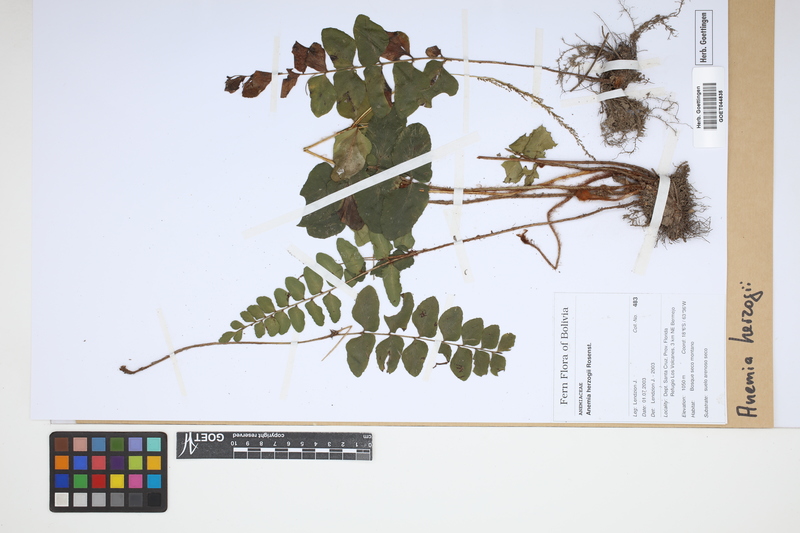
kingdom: Plantae
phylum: Tracheophyta
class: Polypodiopsida
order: Schizaeales
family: Anemiaceae
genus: Anemia
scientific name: Anemia herzogii
